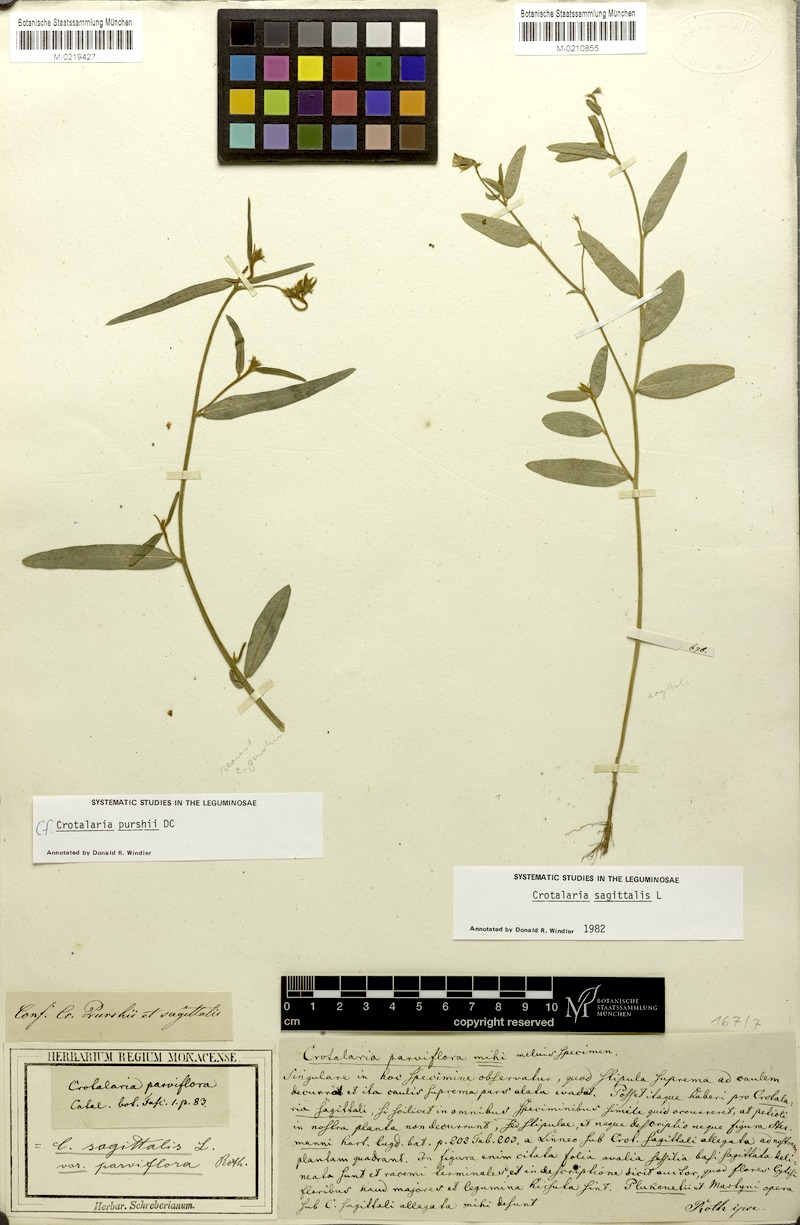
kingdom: Plantae
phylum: Tracheophyta
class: Magnoliopsida
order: Fabales
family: Fabaceae
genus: Crotalaria
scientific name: Crotalaria sagittalis
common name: Arrowhead rattlebox
